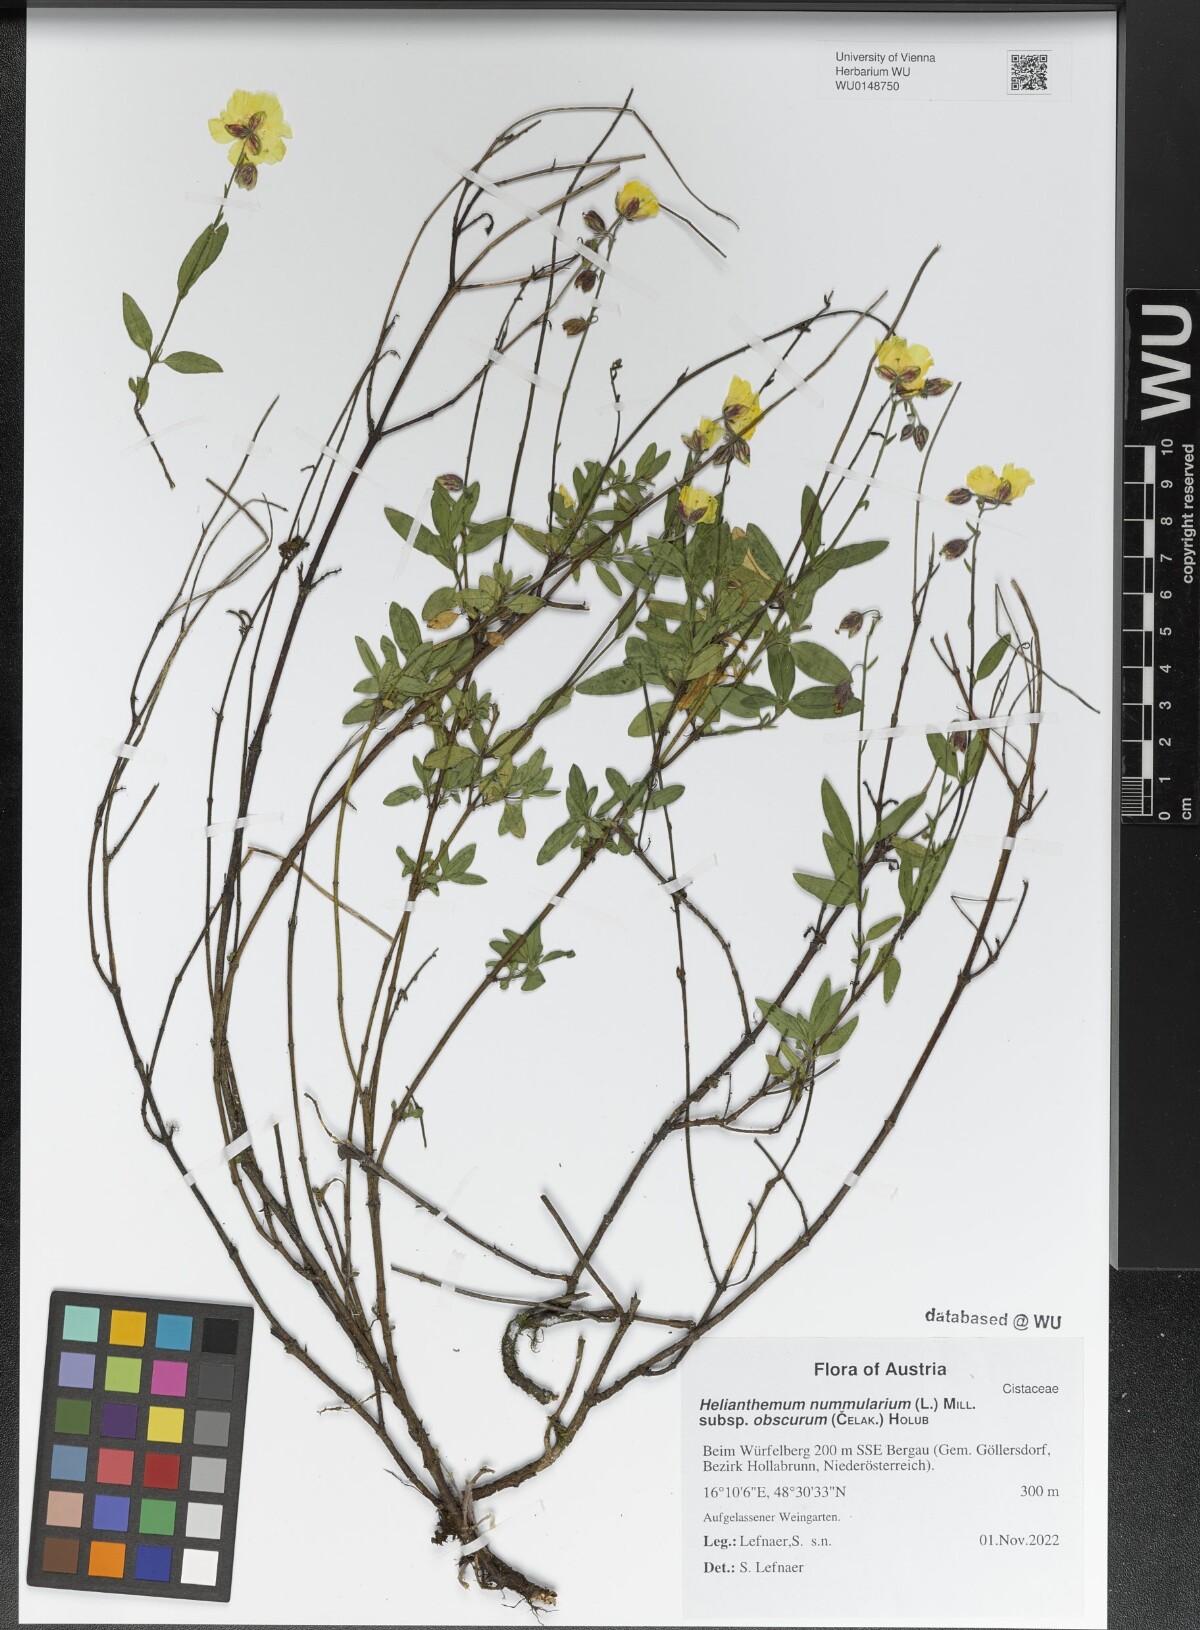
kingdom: Plantae
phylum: Tracheophyta
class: Magnoliopsida
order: Malvales
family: Cistaceae
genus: Helianthemum
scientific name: Helianthemum nummularium
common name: Common rock-rose
